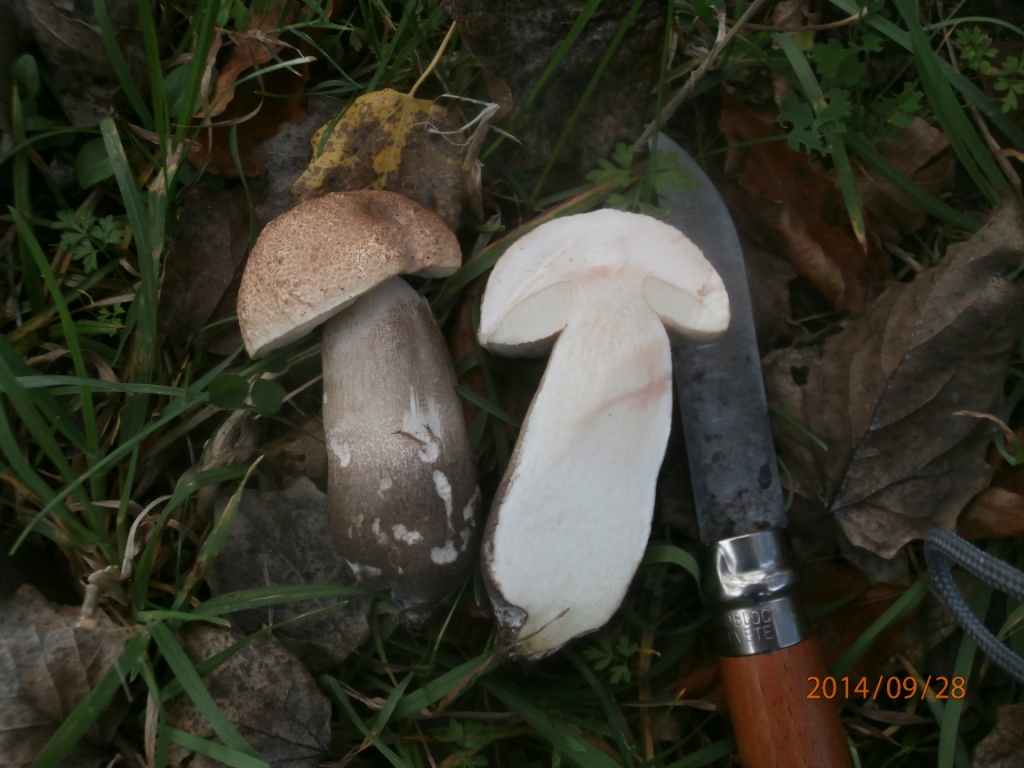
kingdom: Fungi
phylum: Basidiomycota
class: Agaricomycetes
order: Boletales
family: Boletaceae
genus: Leccinum
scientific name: Leccinum duriusculum
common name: poppel-skælrørhat
